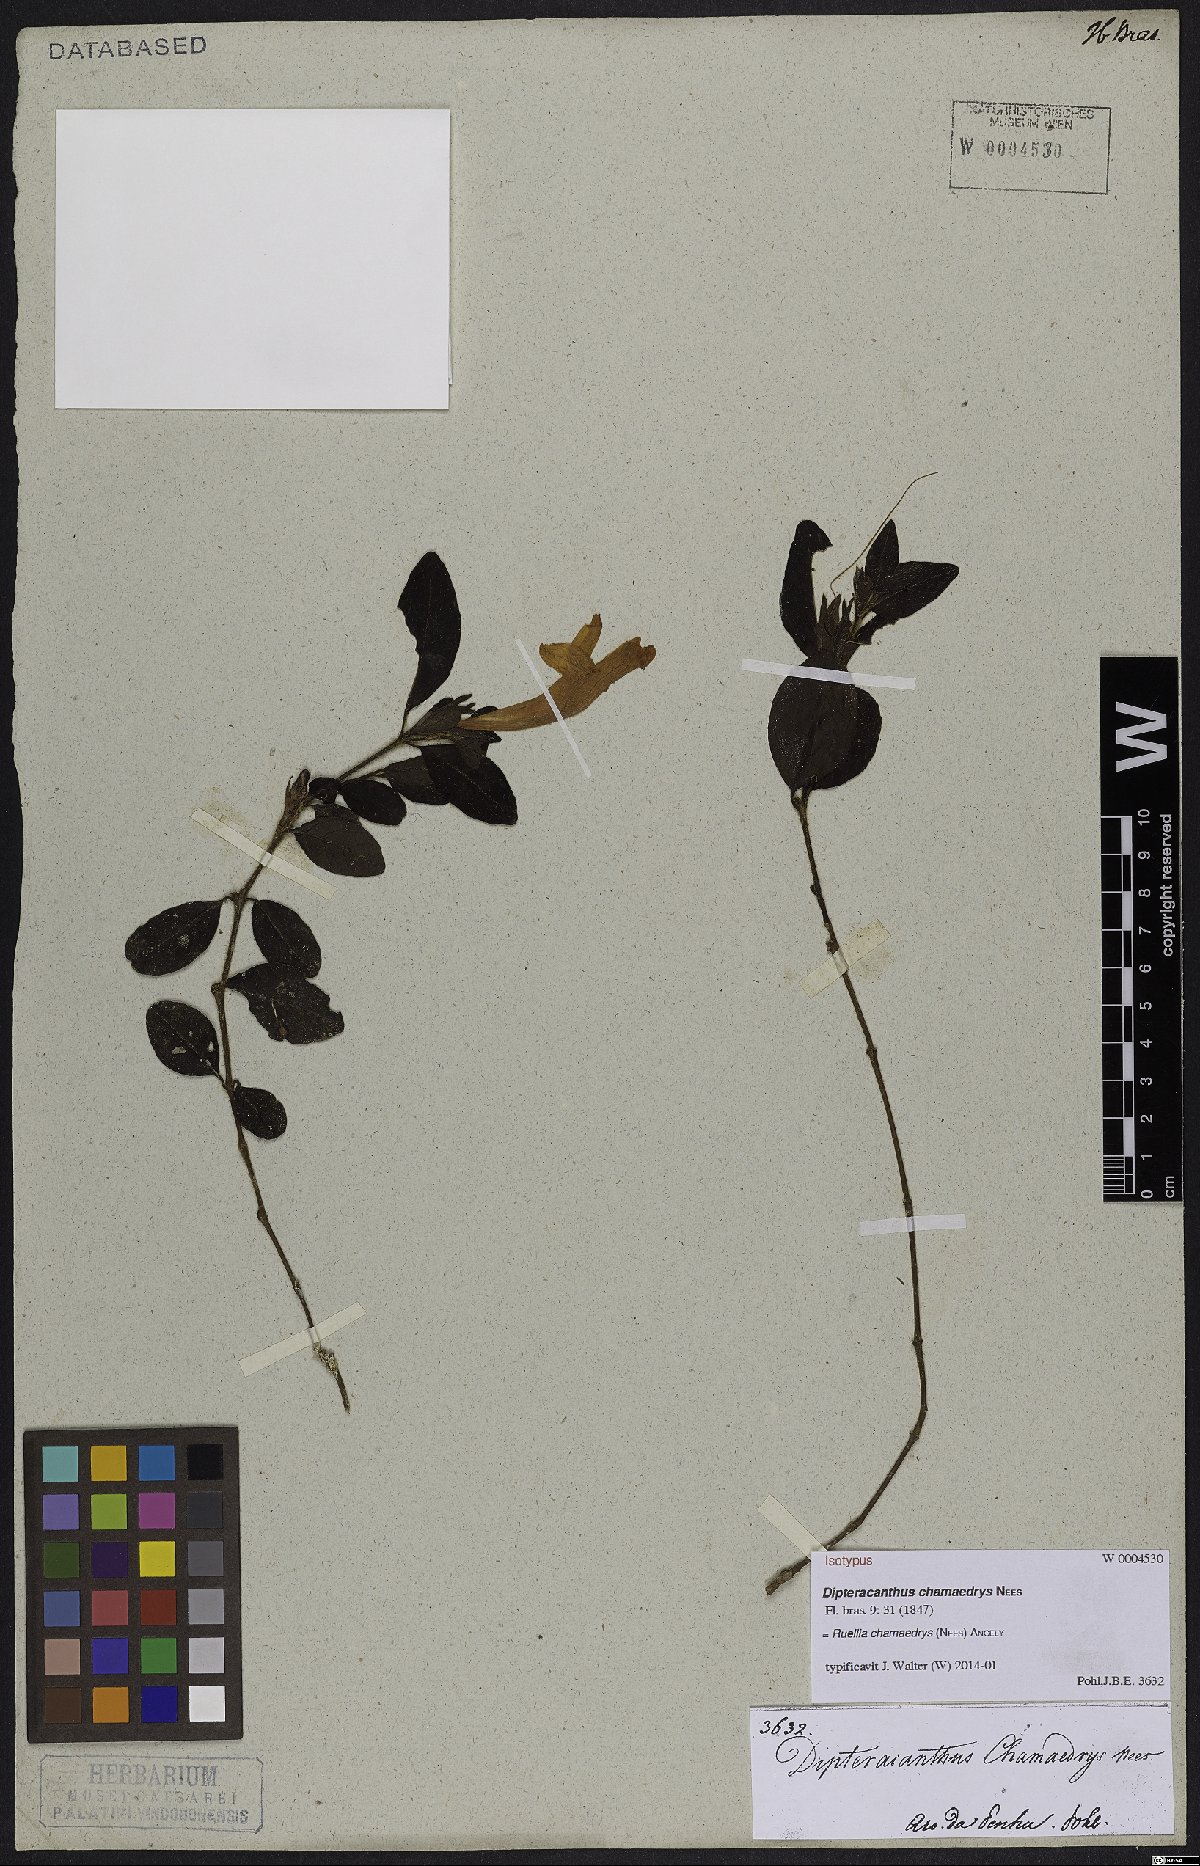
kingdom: Plantae
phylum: Tracheophyta
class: Magnoliopsida
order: Lamiales
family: Acanthaceae
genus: Ruellia
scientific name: Ruellia chamaedrys
